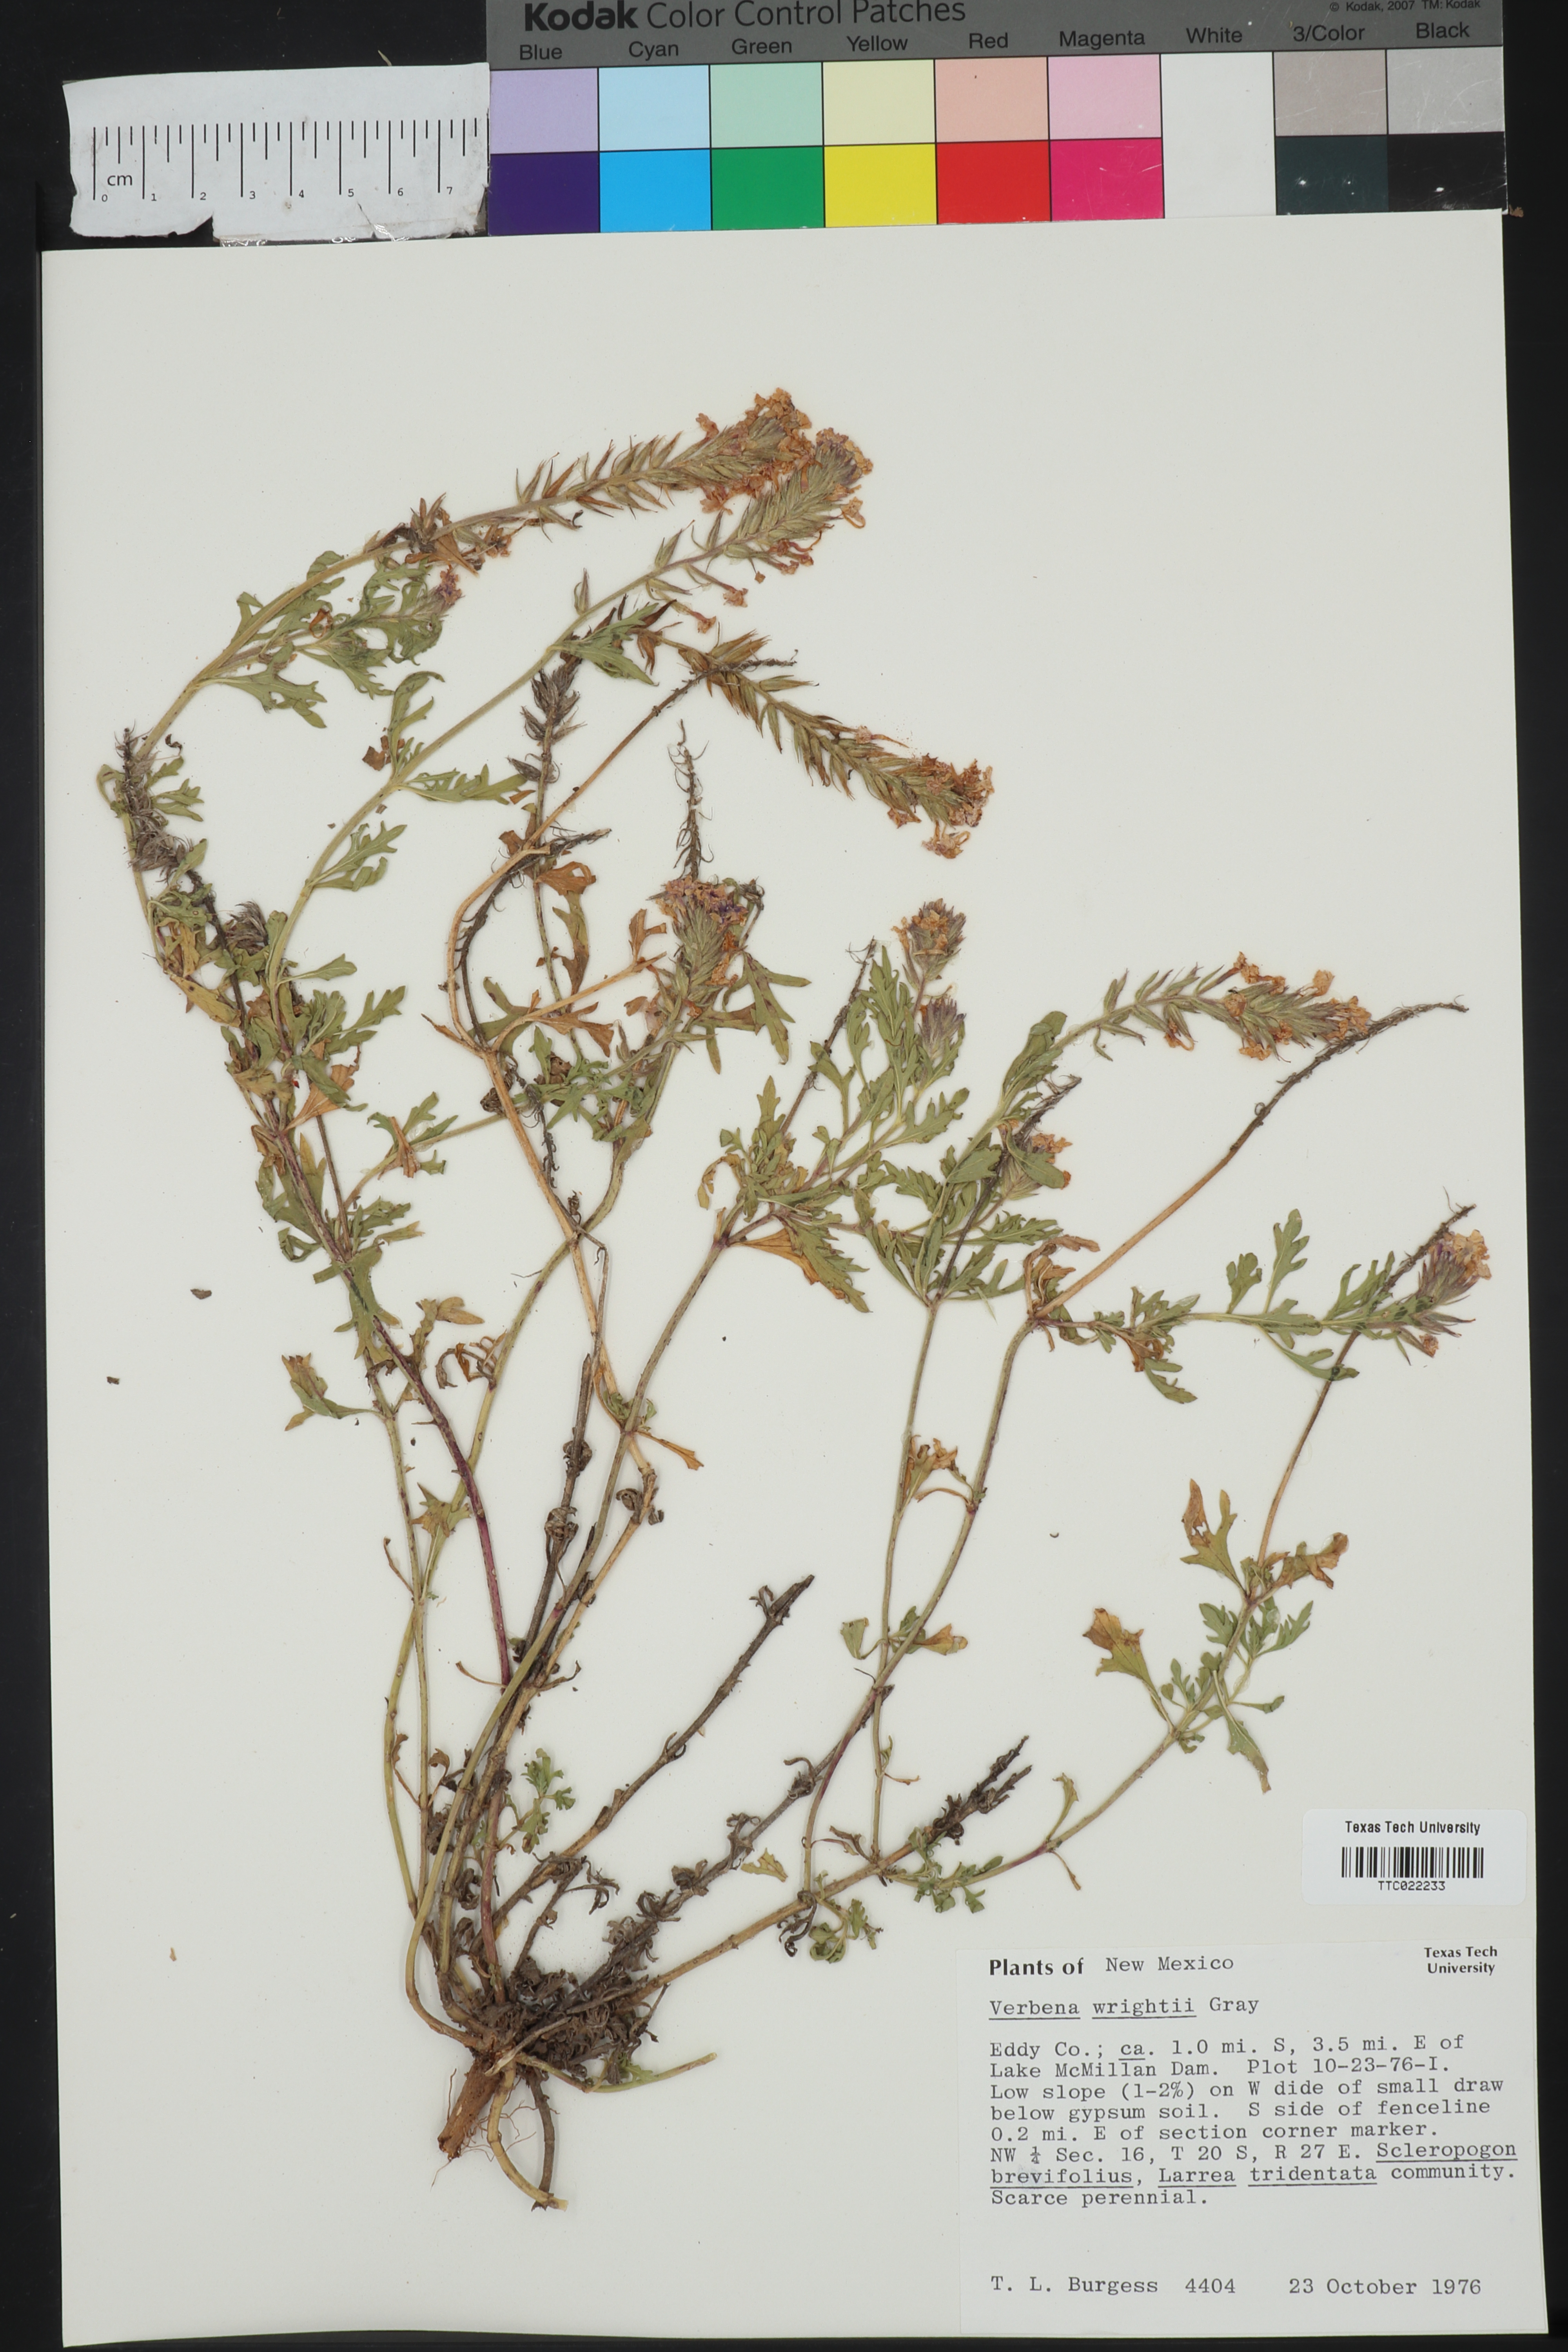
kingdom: Plantae
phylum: Tracheophyta
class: Magnoliopsida
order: Lamiales
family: Verbenaceae
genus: Verbena
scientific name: Verbena bipinnatifida
